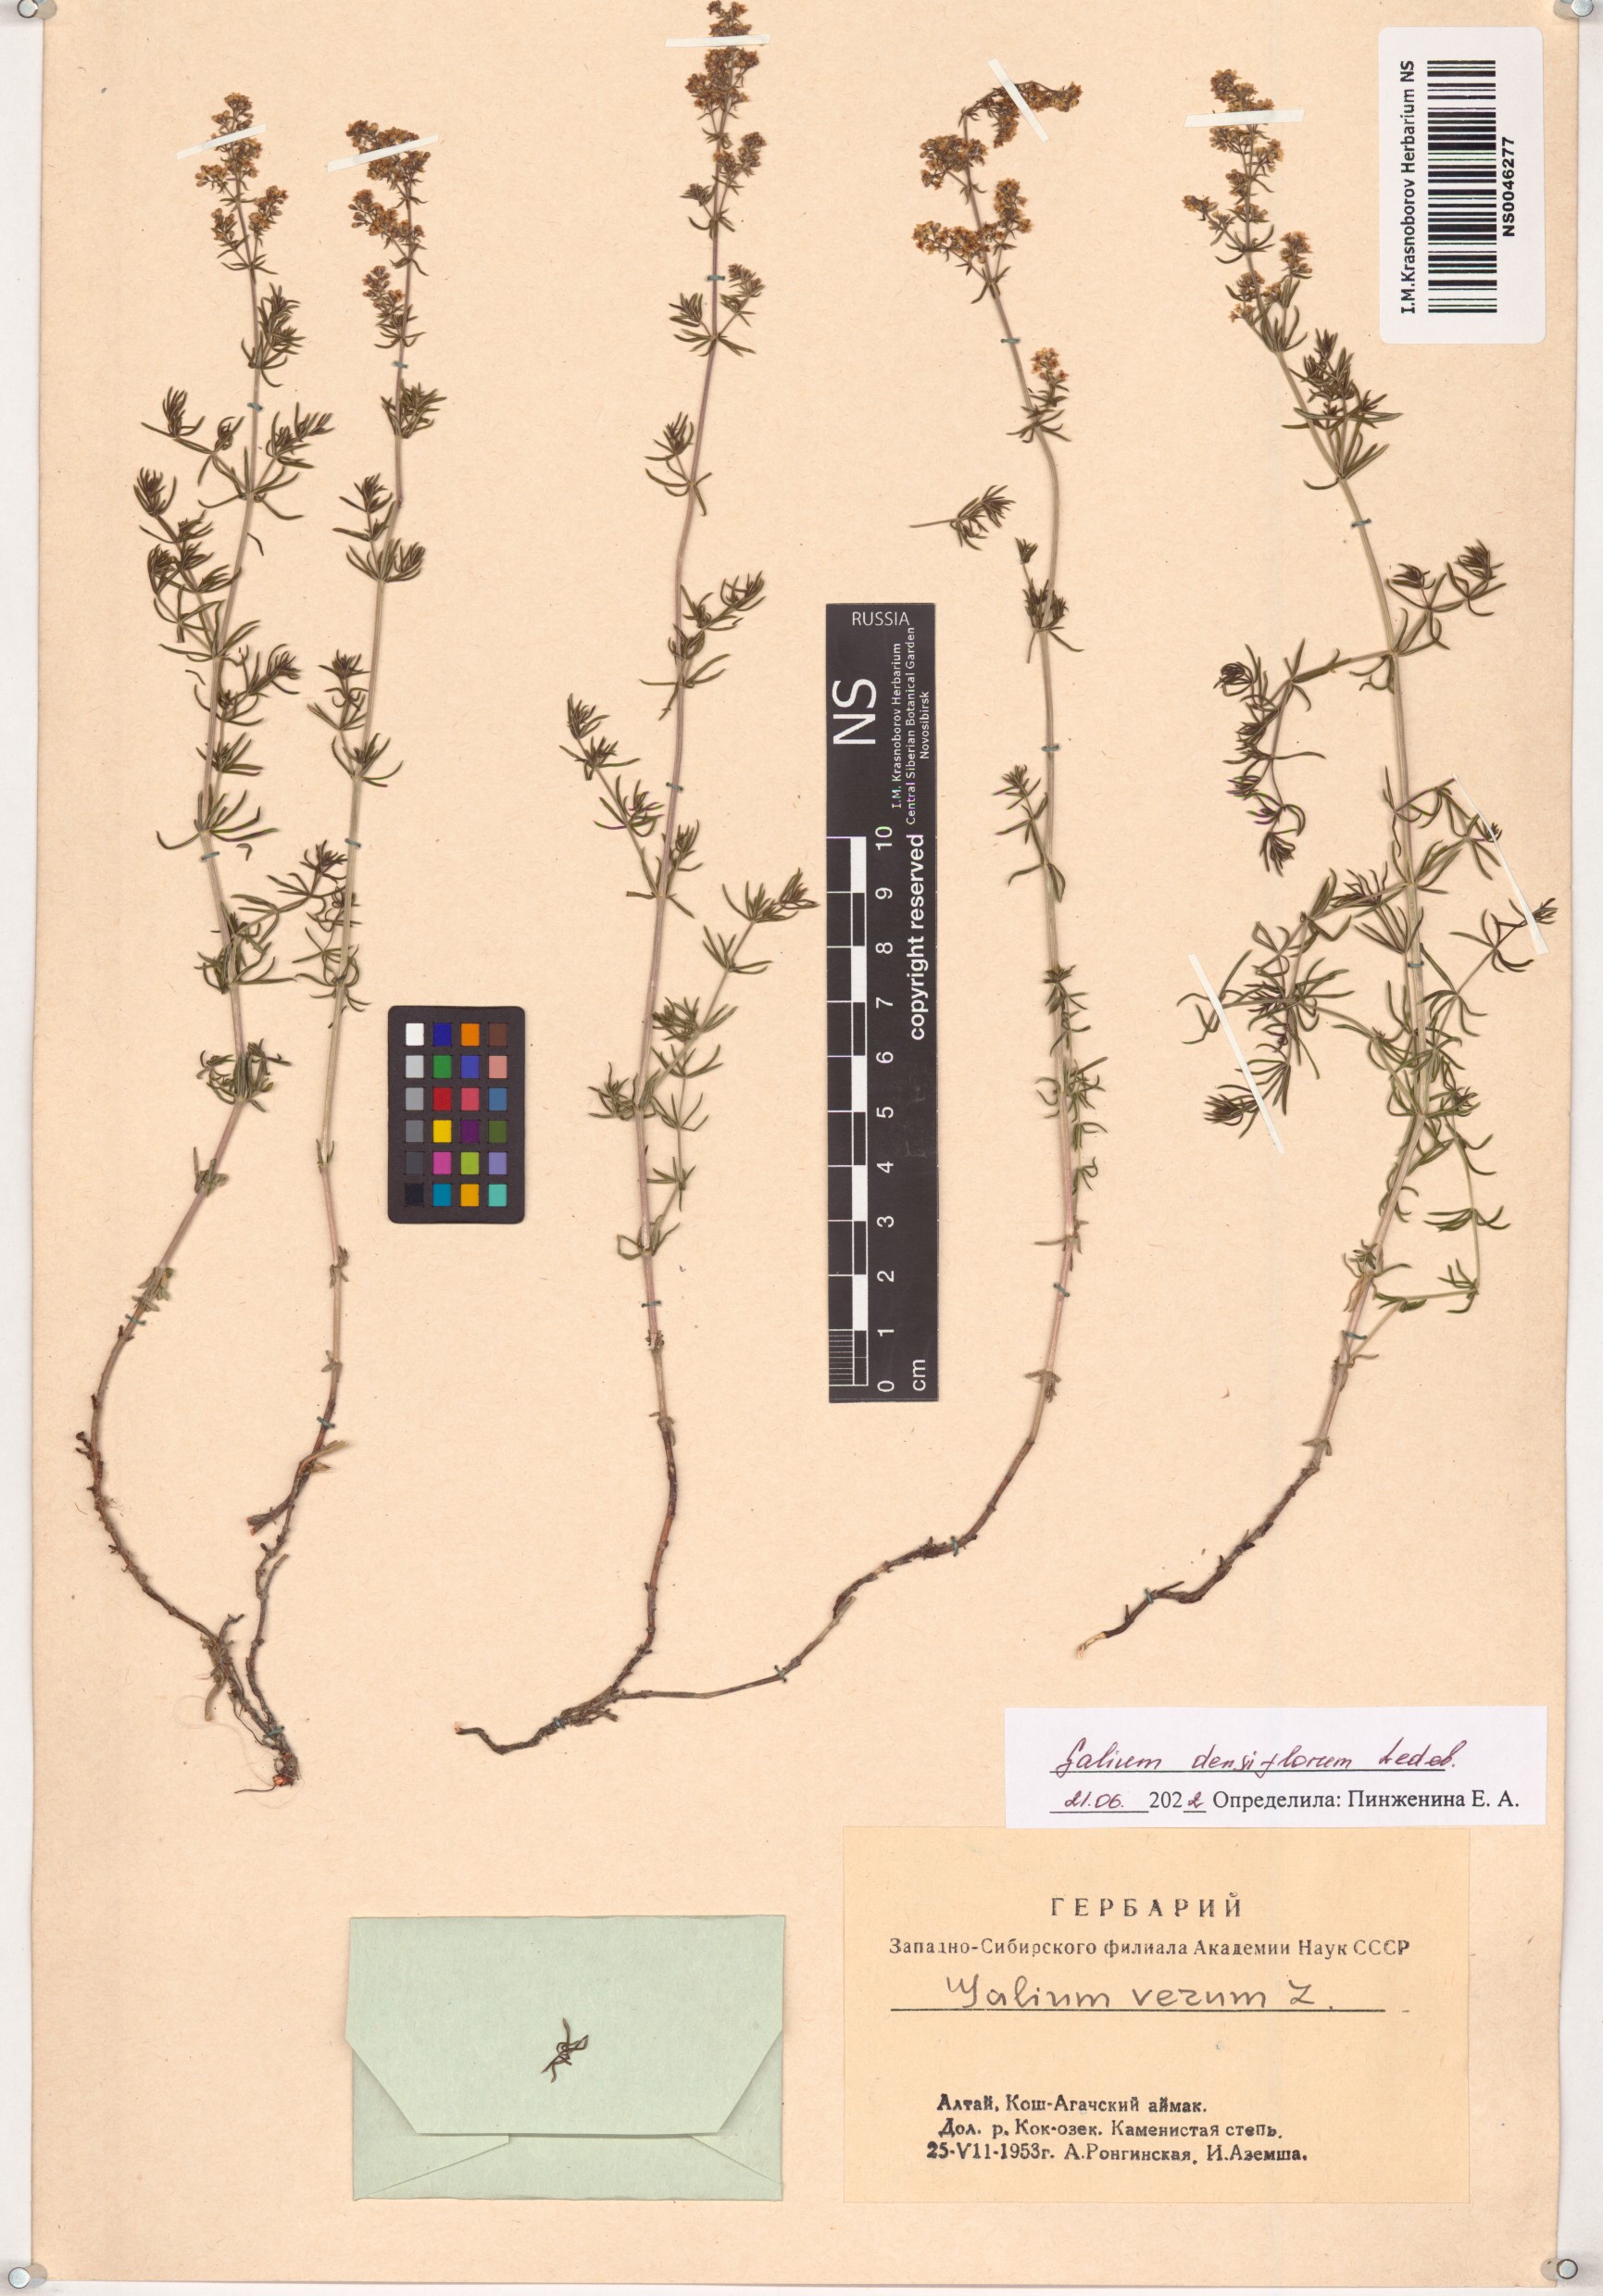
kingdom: Plantae
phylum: Tracheophyta
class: Magnoliopsida
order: Gentianales
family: Rubiaceae
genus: Galium
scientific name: Galium densiflorum
